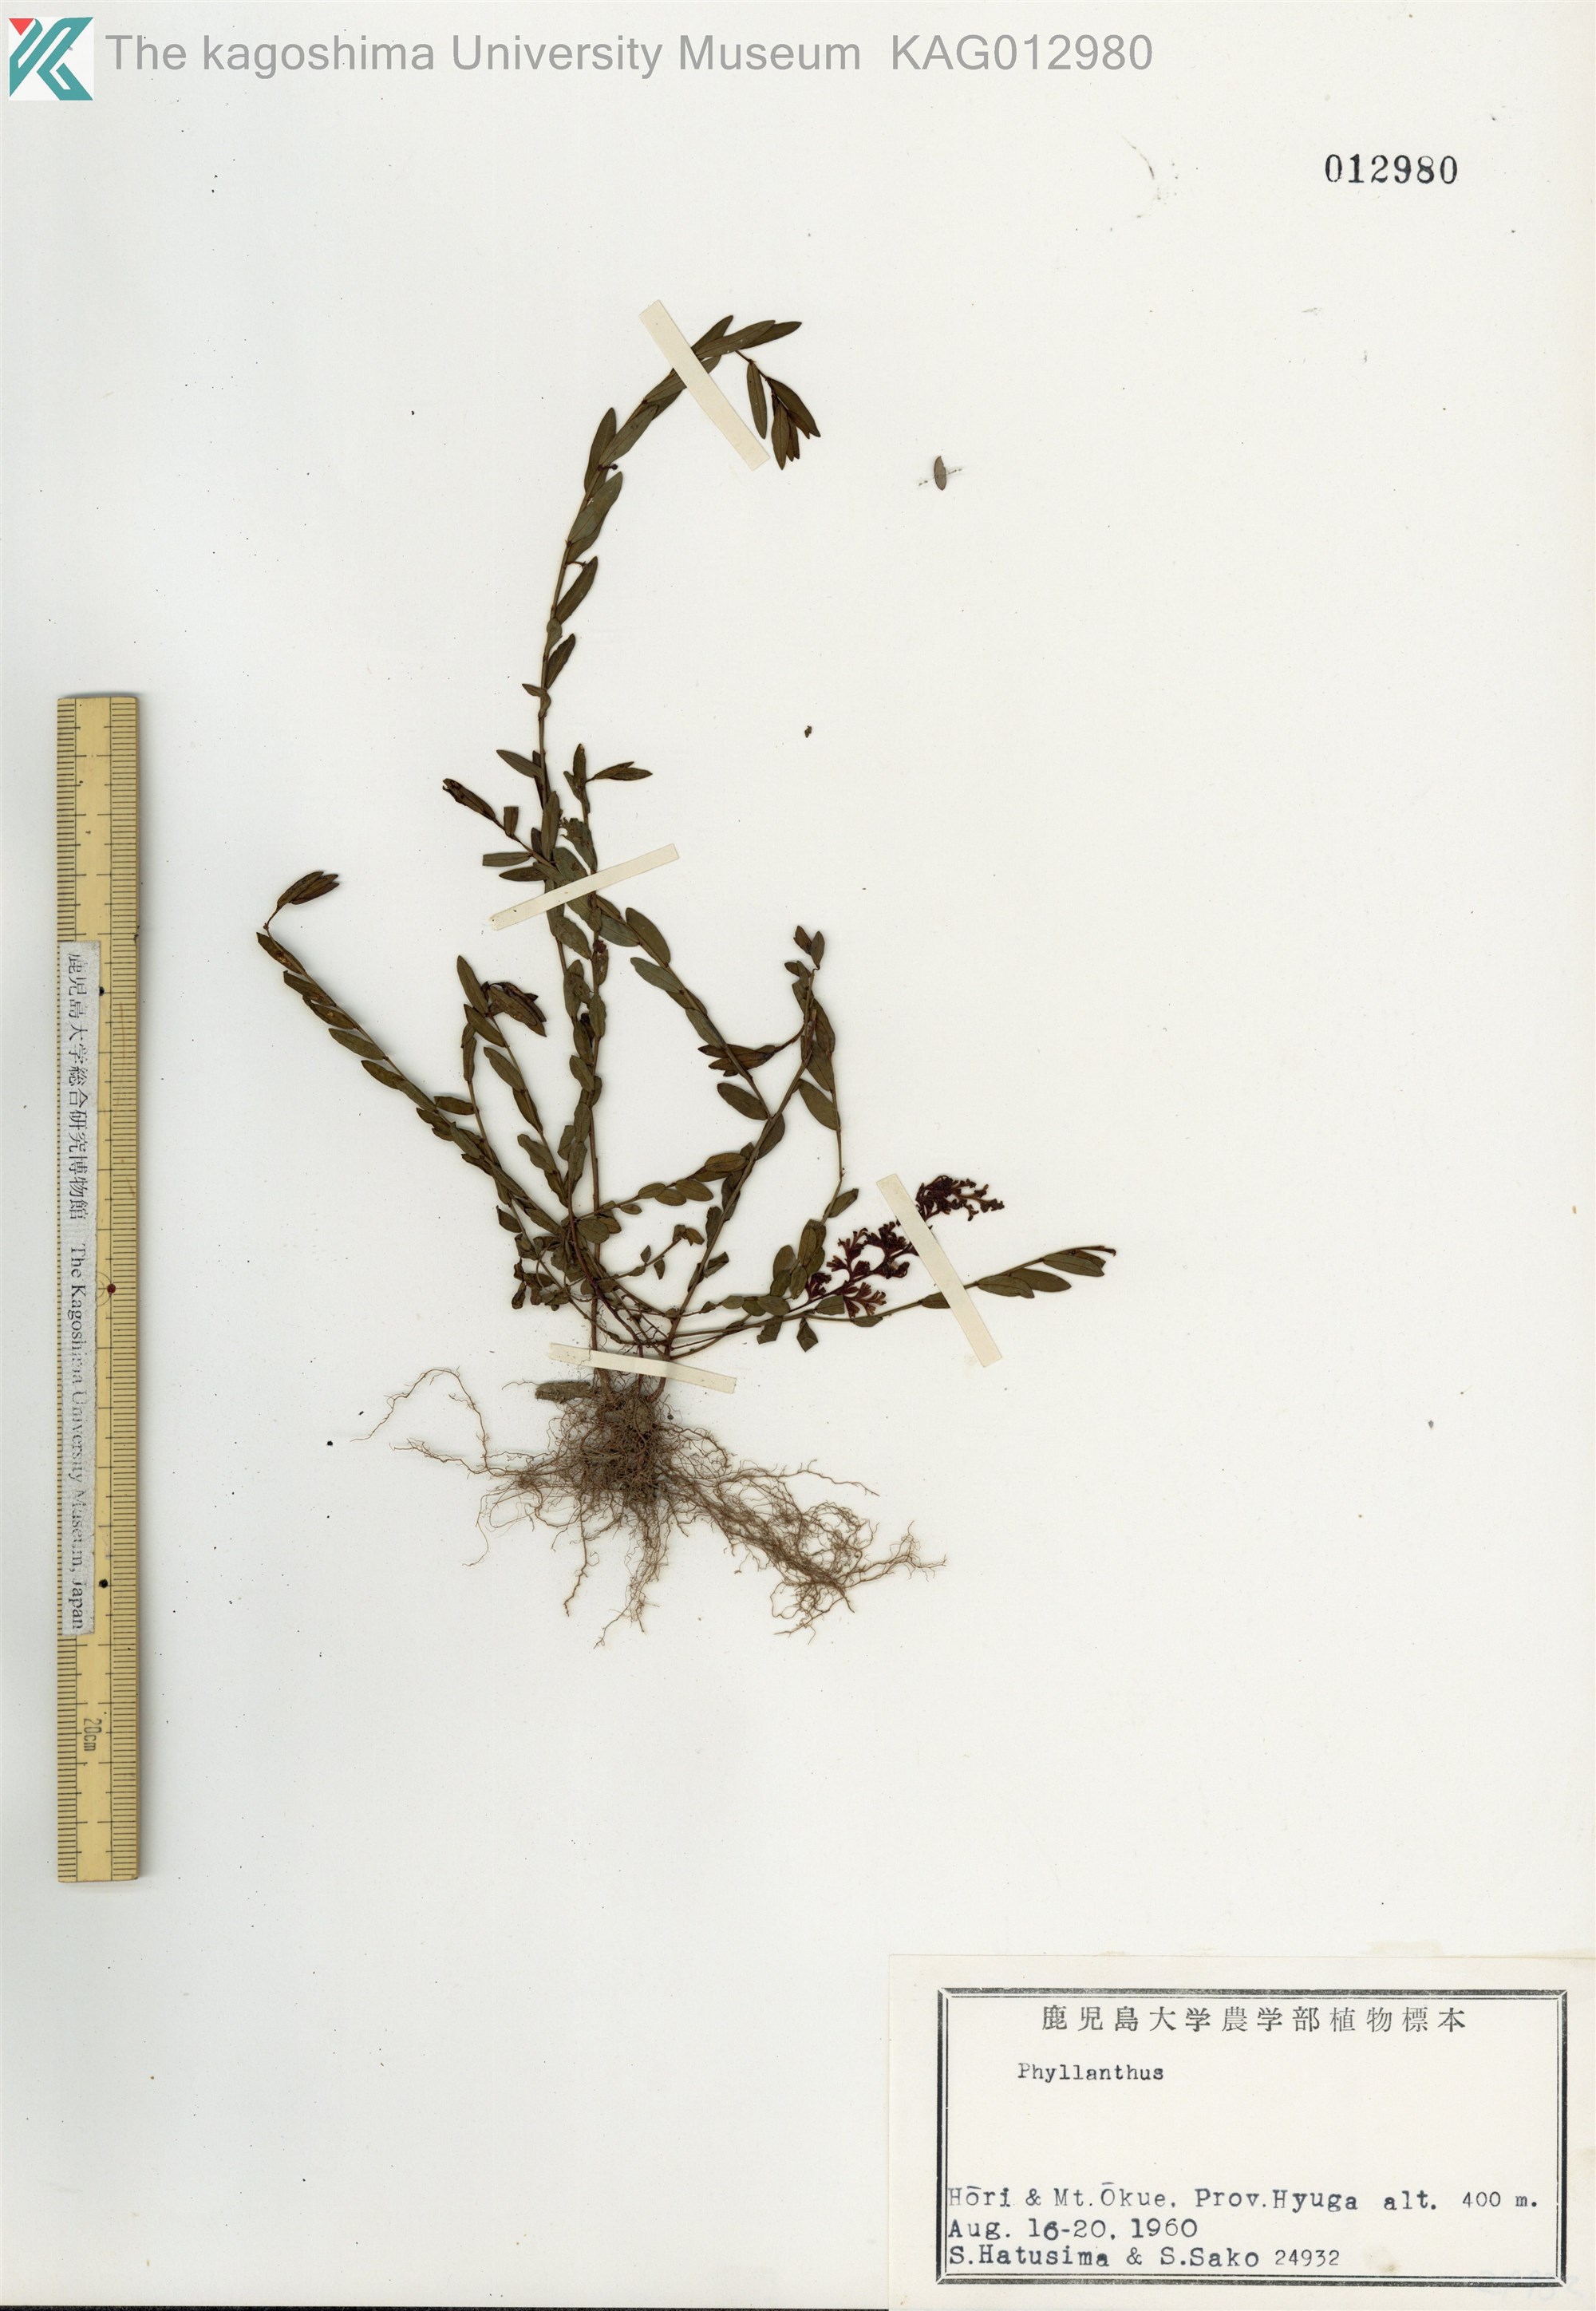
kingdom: Plantae
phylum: Tracheophyta
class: Magnoliopsida
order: Malpighiales
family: Phyllanthaceae
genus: Phyllanthus
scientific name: Phyllanthus ussuriensis
